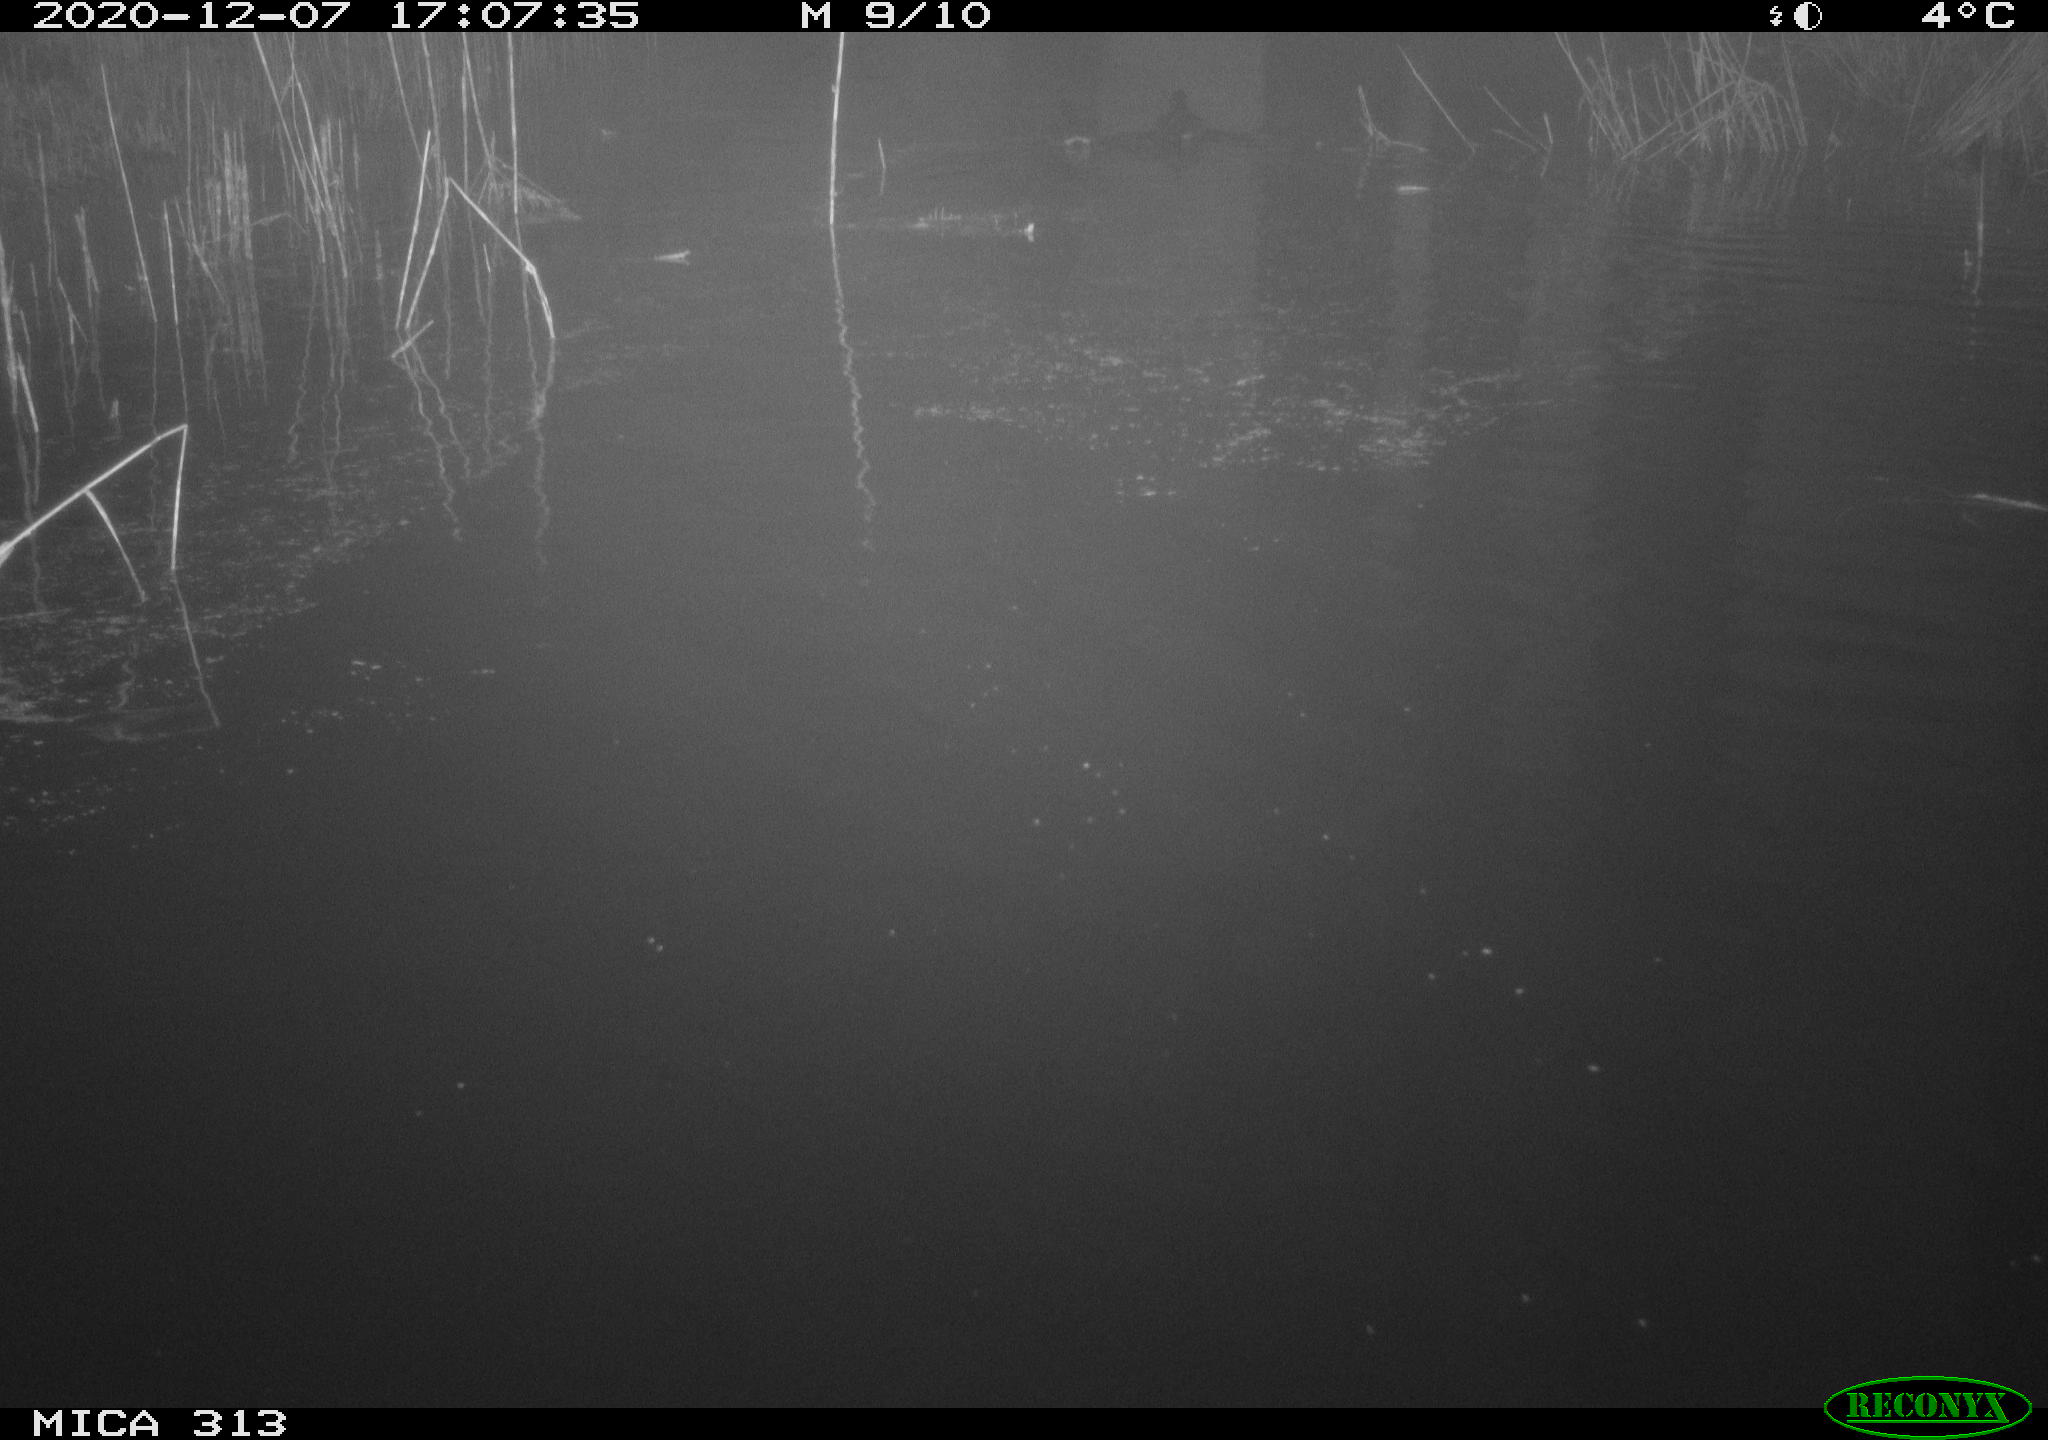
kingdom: Animalia
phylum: Chordata
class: Aves
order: Gruiformes
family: Rallidae
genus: Gallinula
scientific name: Gallinula chloropus
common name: Common moorhen
